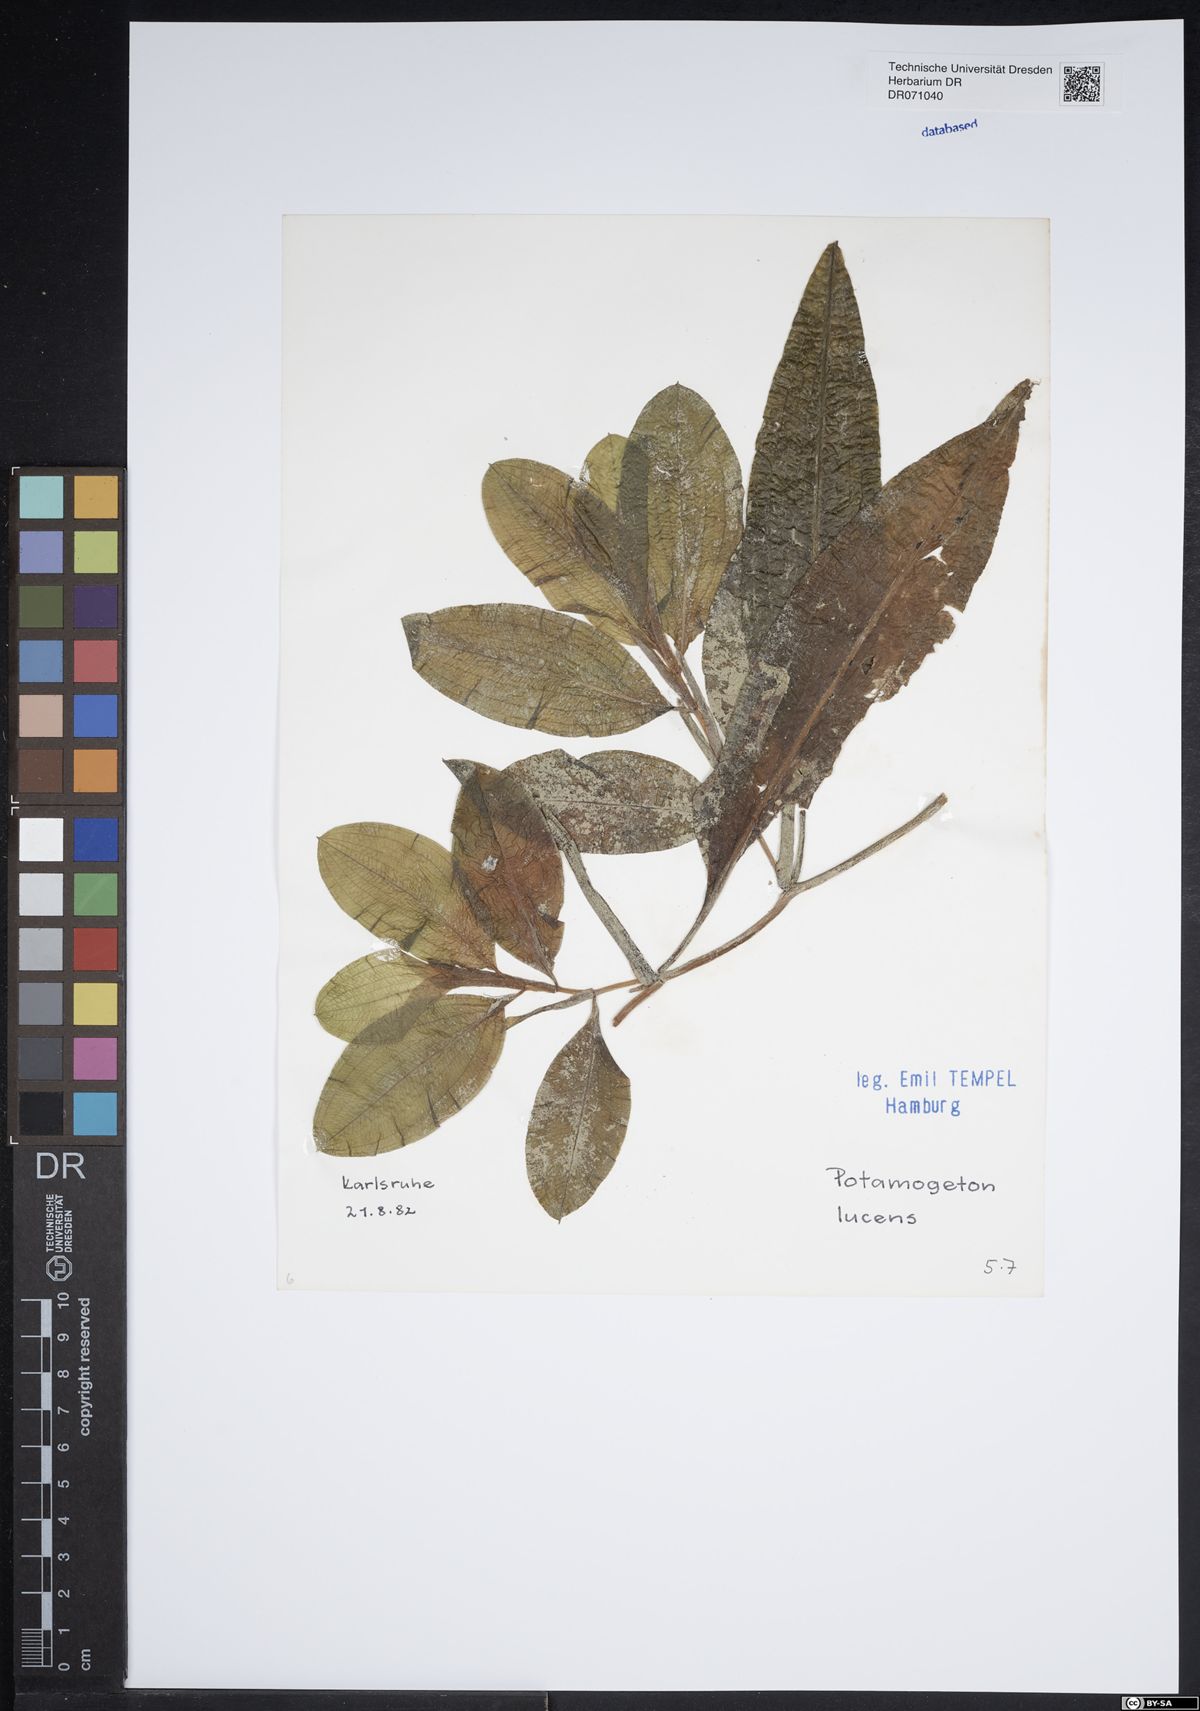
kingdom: Plantae
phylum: Tracheophyta
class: Liliopsida
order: Alismatales
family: Potamogetonaceae
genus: Potamogeton
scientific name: Potamogeton lucens
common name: Shining pondweed
